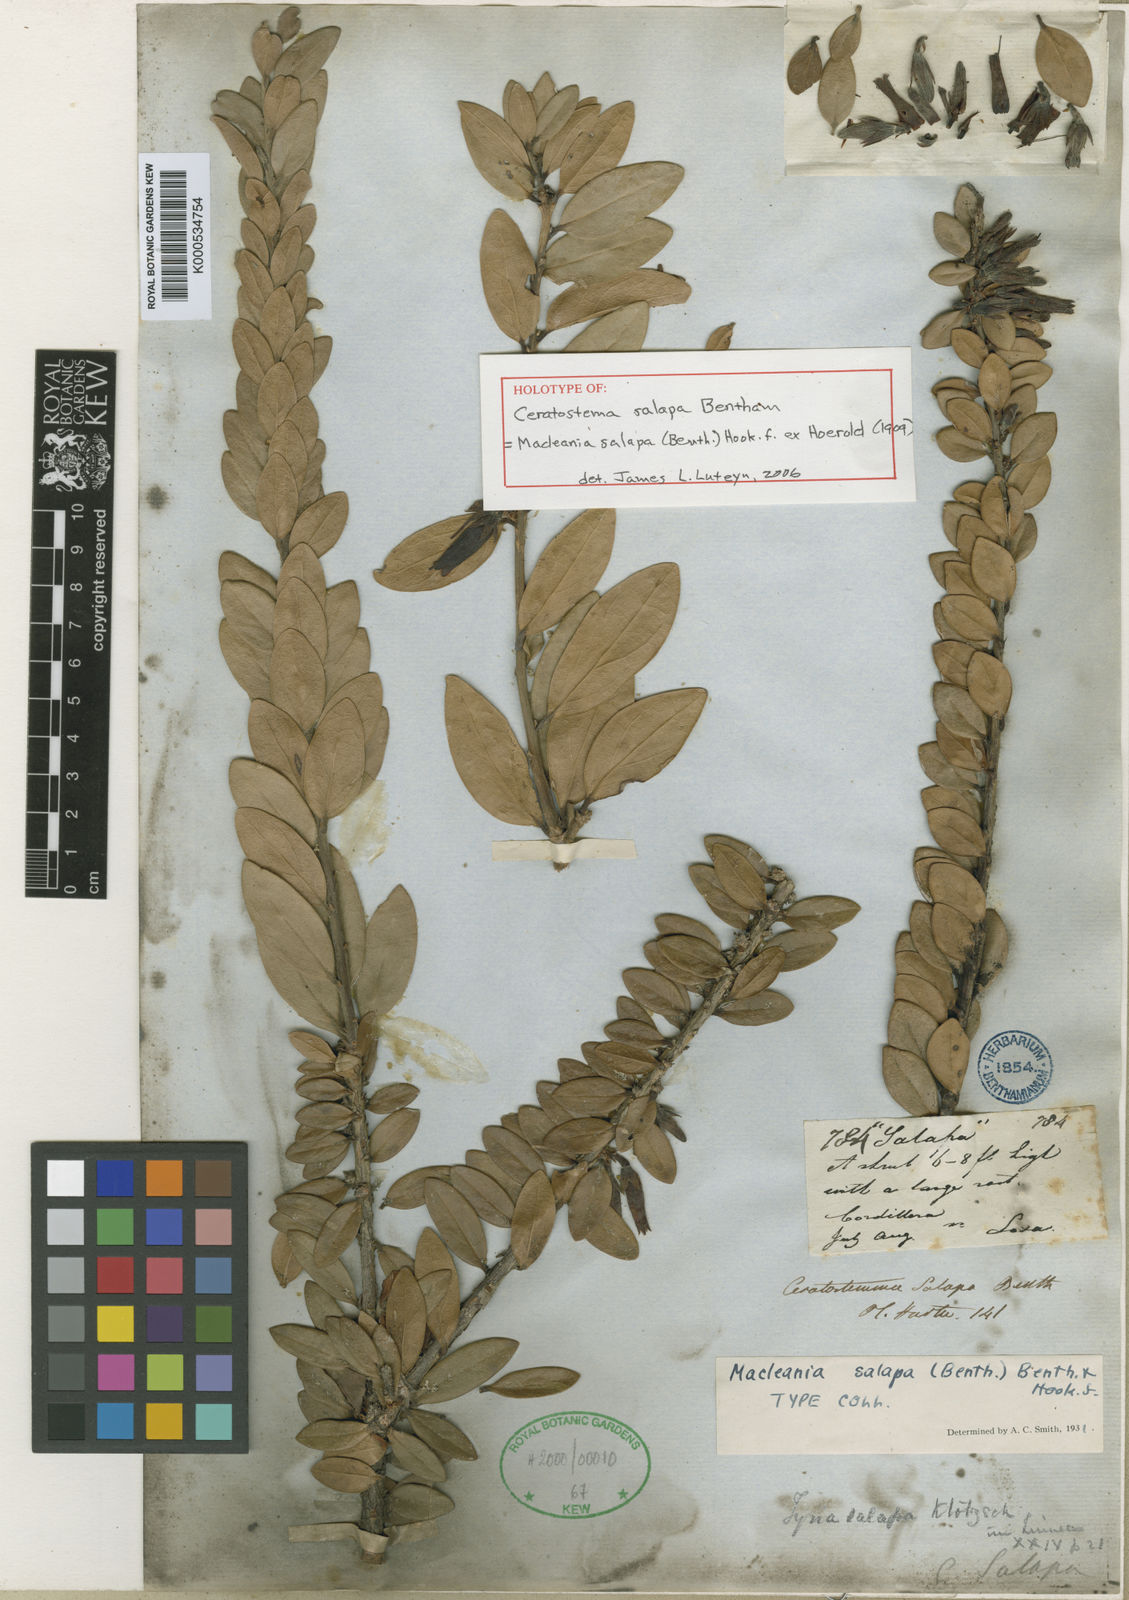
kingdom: Plantae
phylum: Tracheophyta
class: Magnoliopsida
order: Ericales
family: Ericaceae
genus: Macleania
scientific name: Macleania
